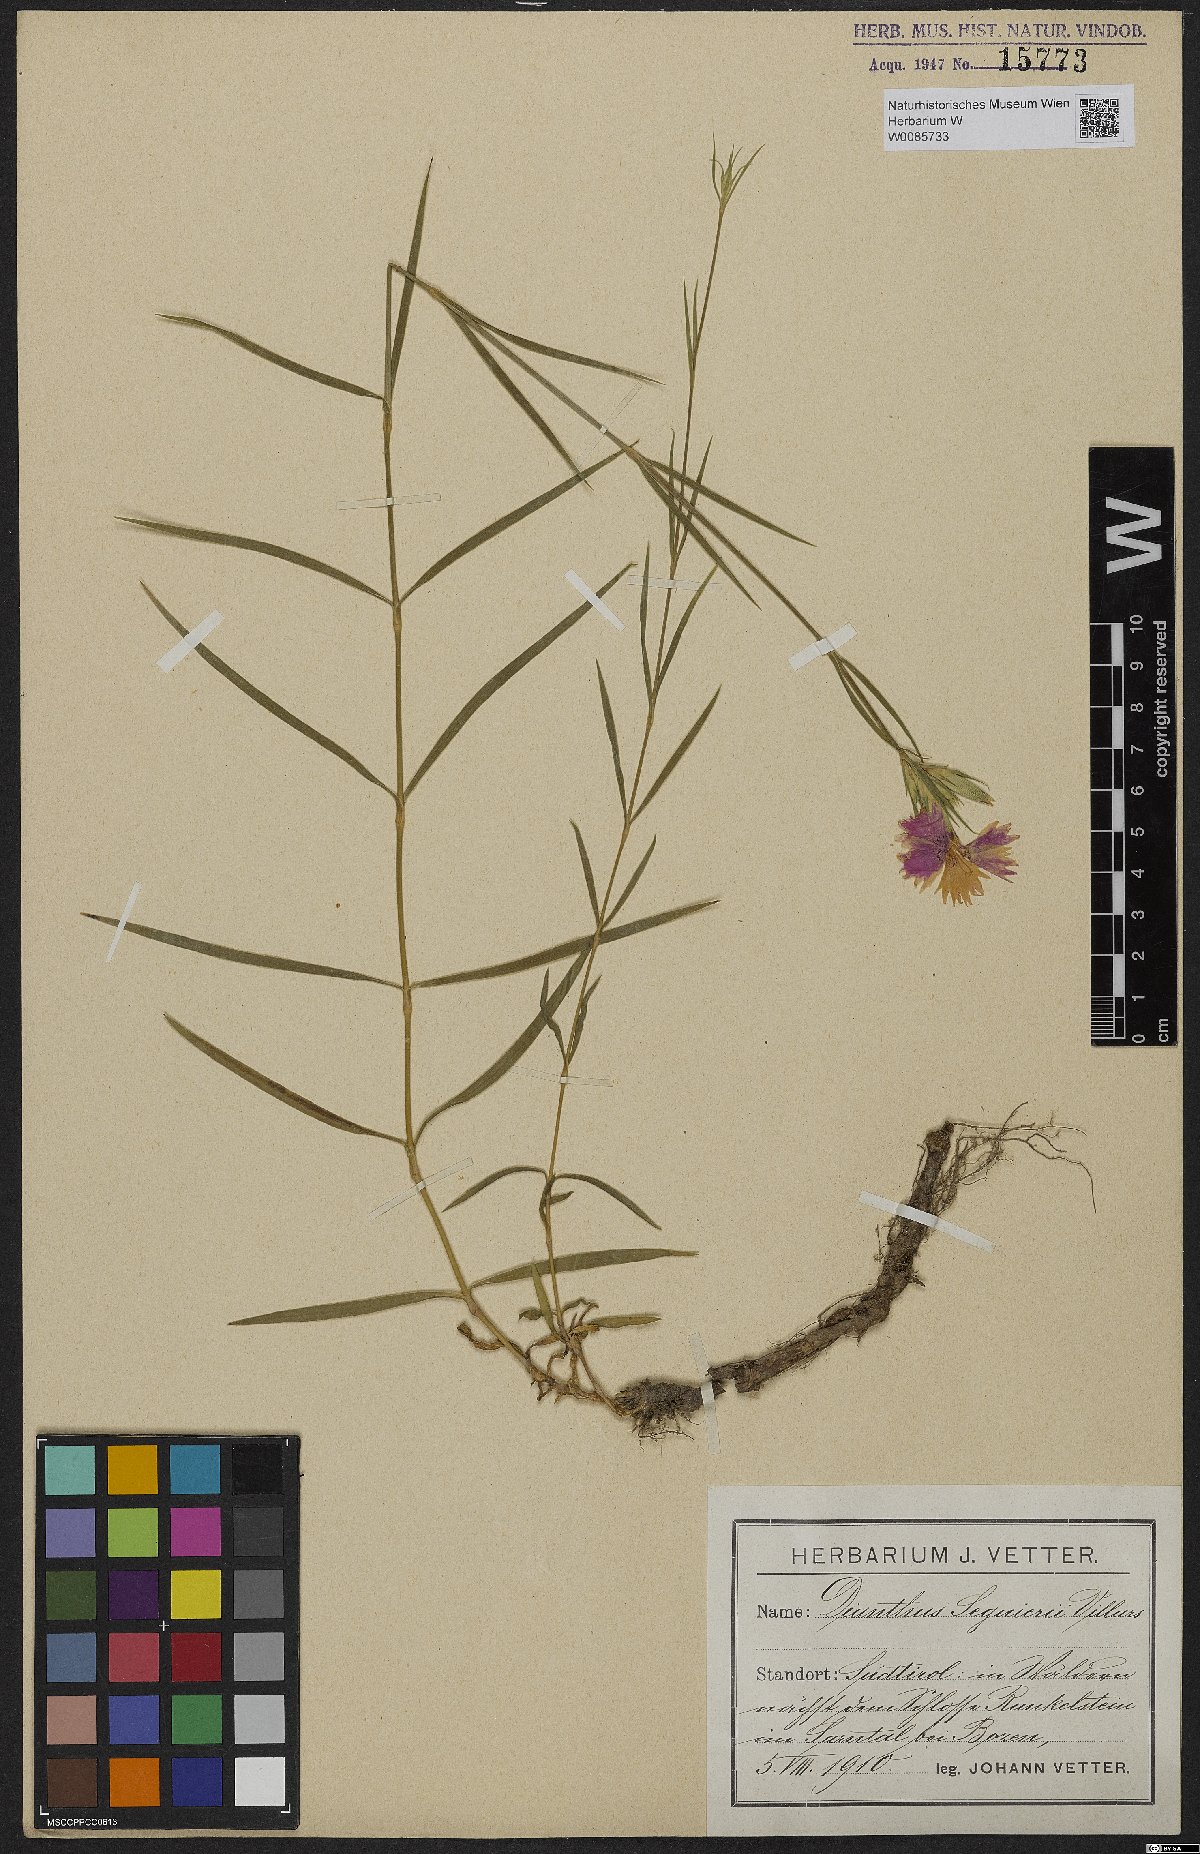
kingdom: Plantae
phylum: Tracheophyta
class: Magnoliopsida
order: Caryophyllales
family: Caryophyllaceae
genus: Dianthus
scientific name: Dianthus seguieri
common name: Ragged pink
